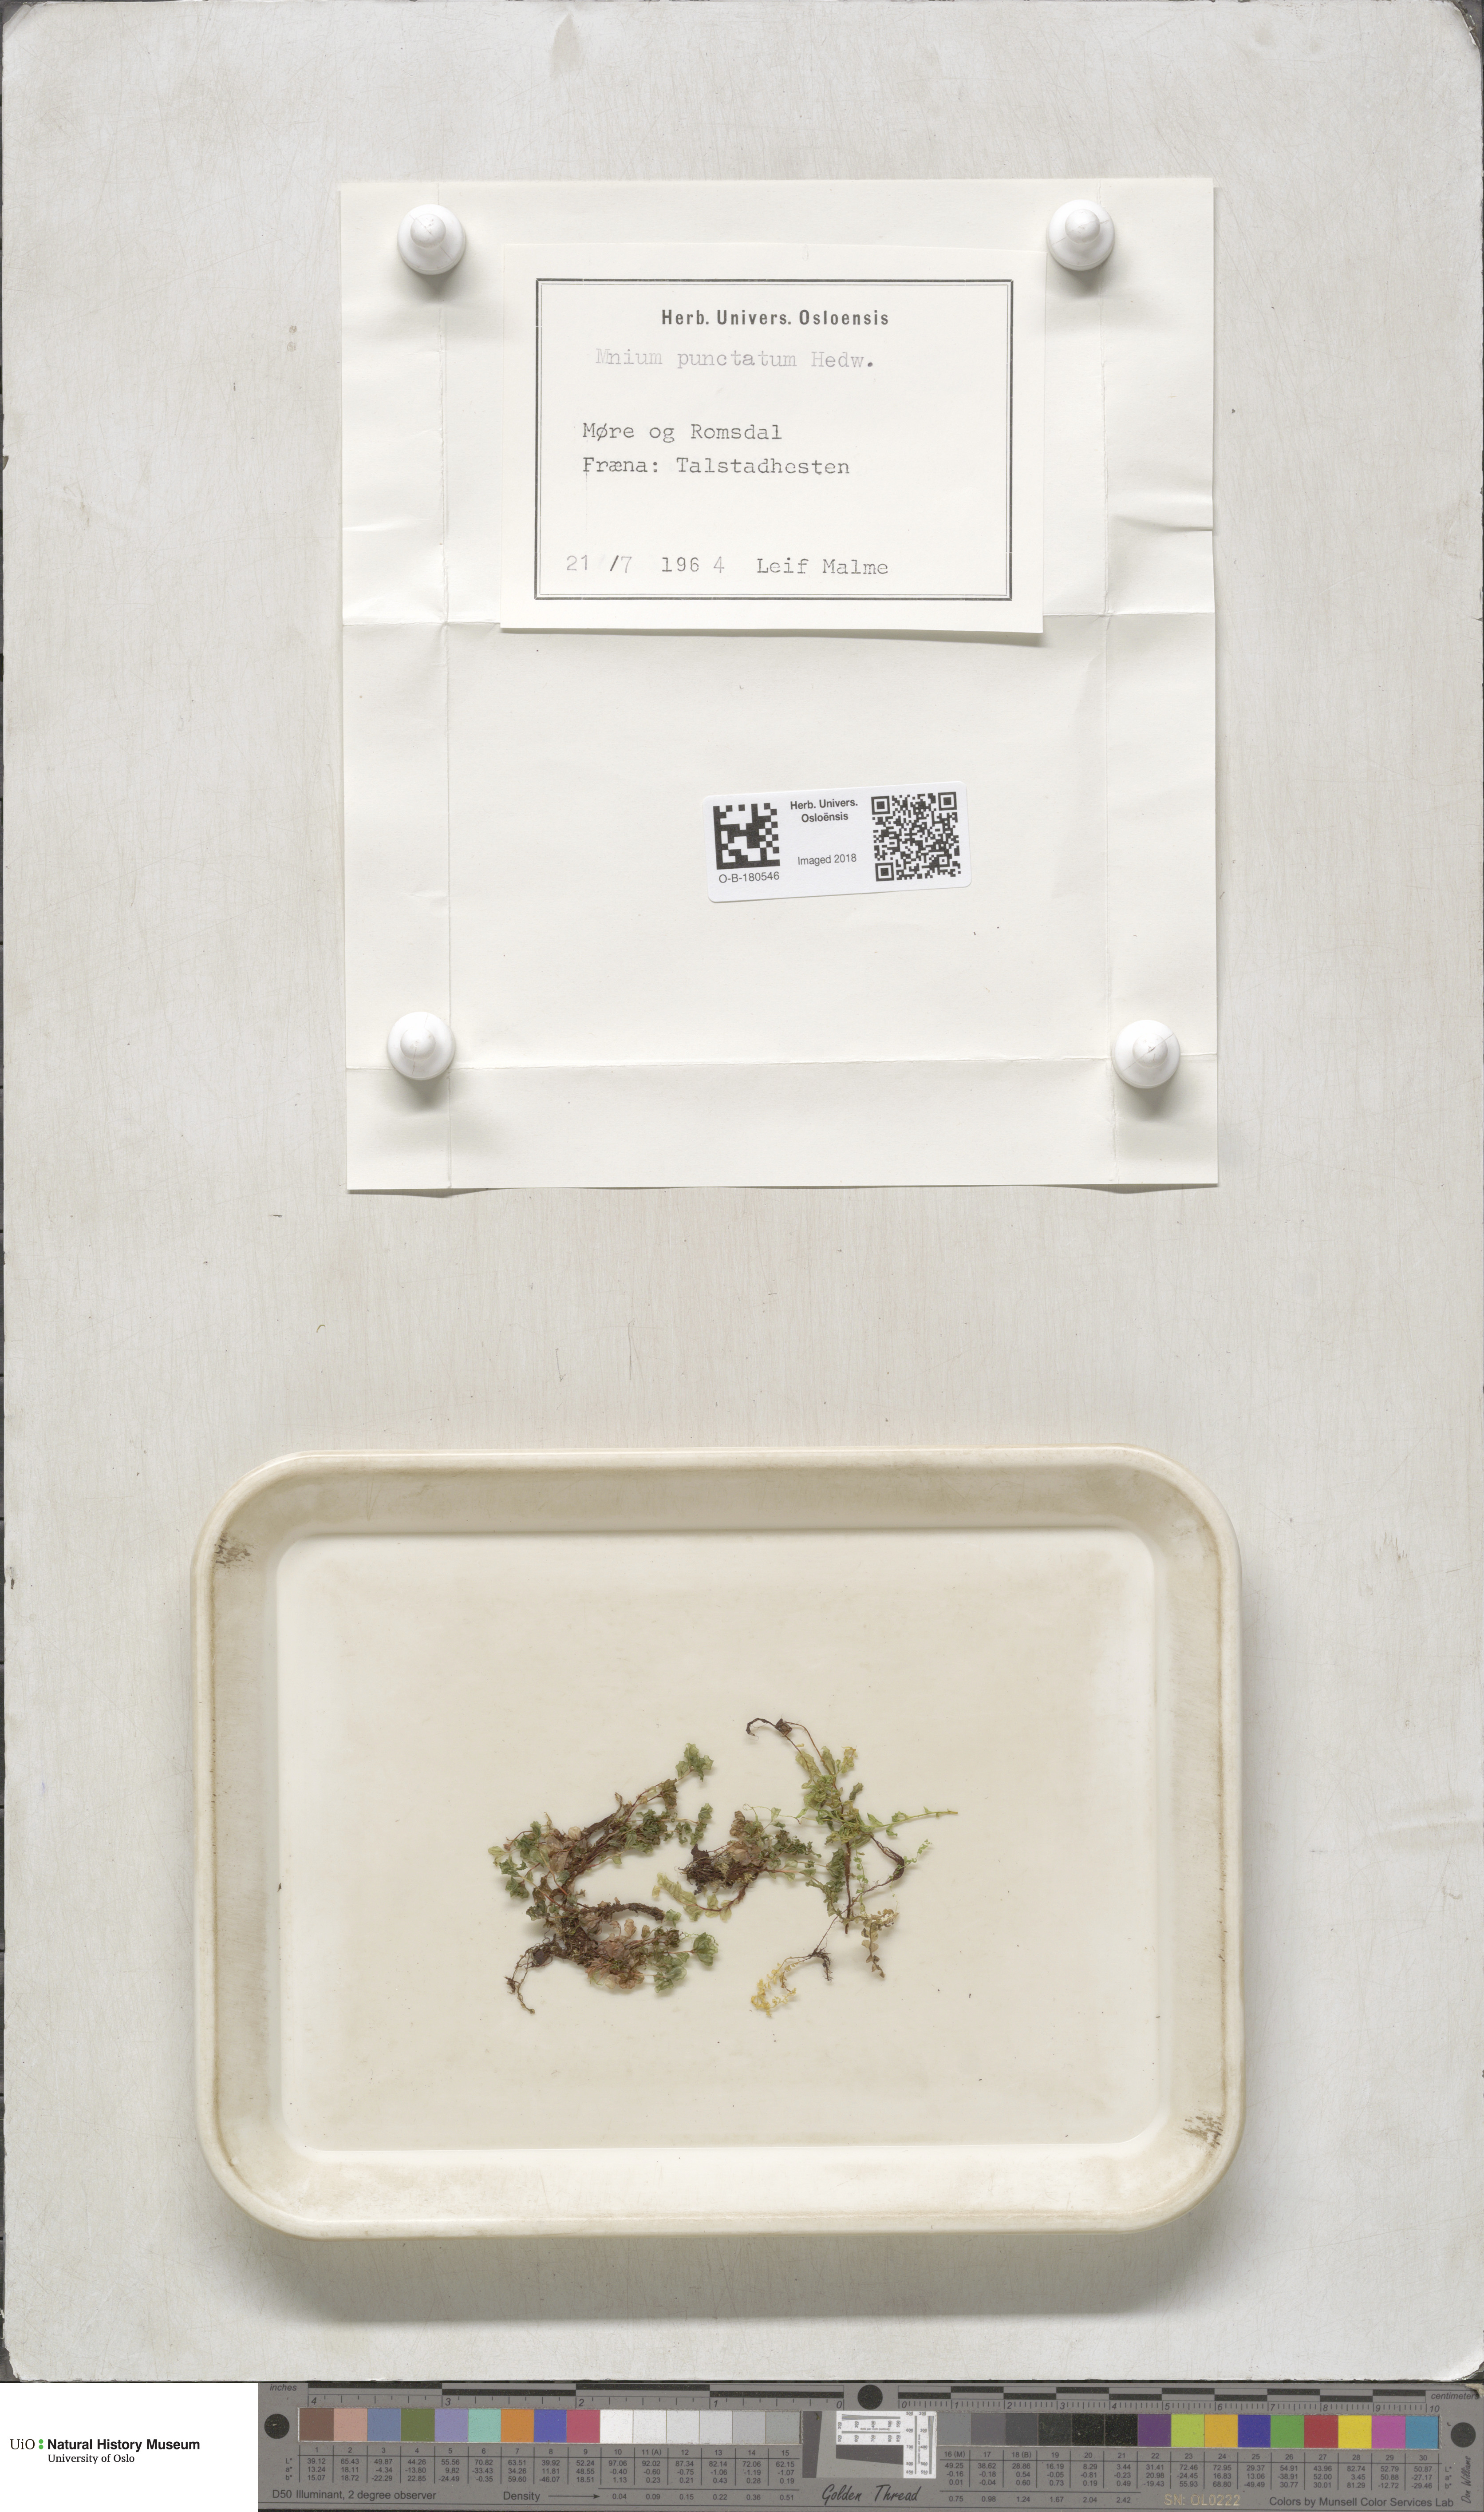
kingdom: Plantae
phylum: Bryophyta
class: Bryopsida
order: Bryales
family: Mniaceae
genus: Rhizomnium
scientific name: Rhizomnium punctatum
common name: Dotted leafy moss
